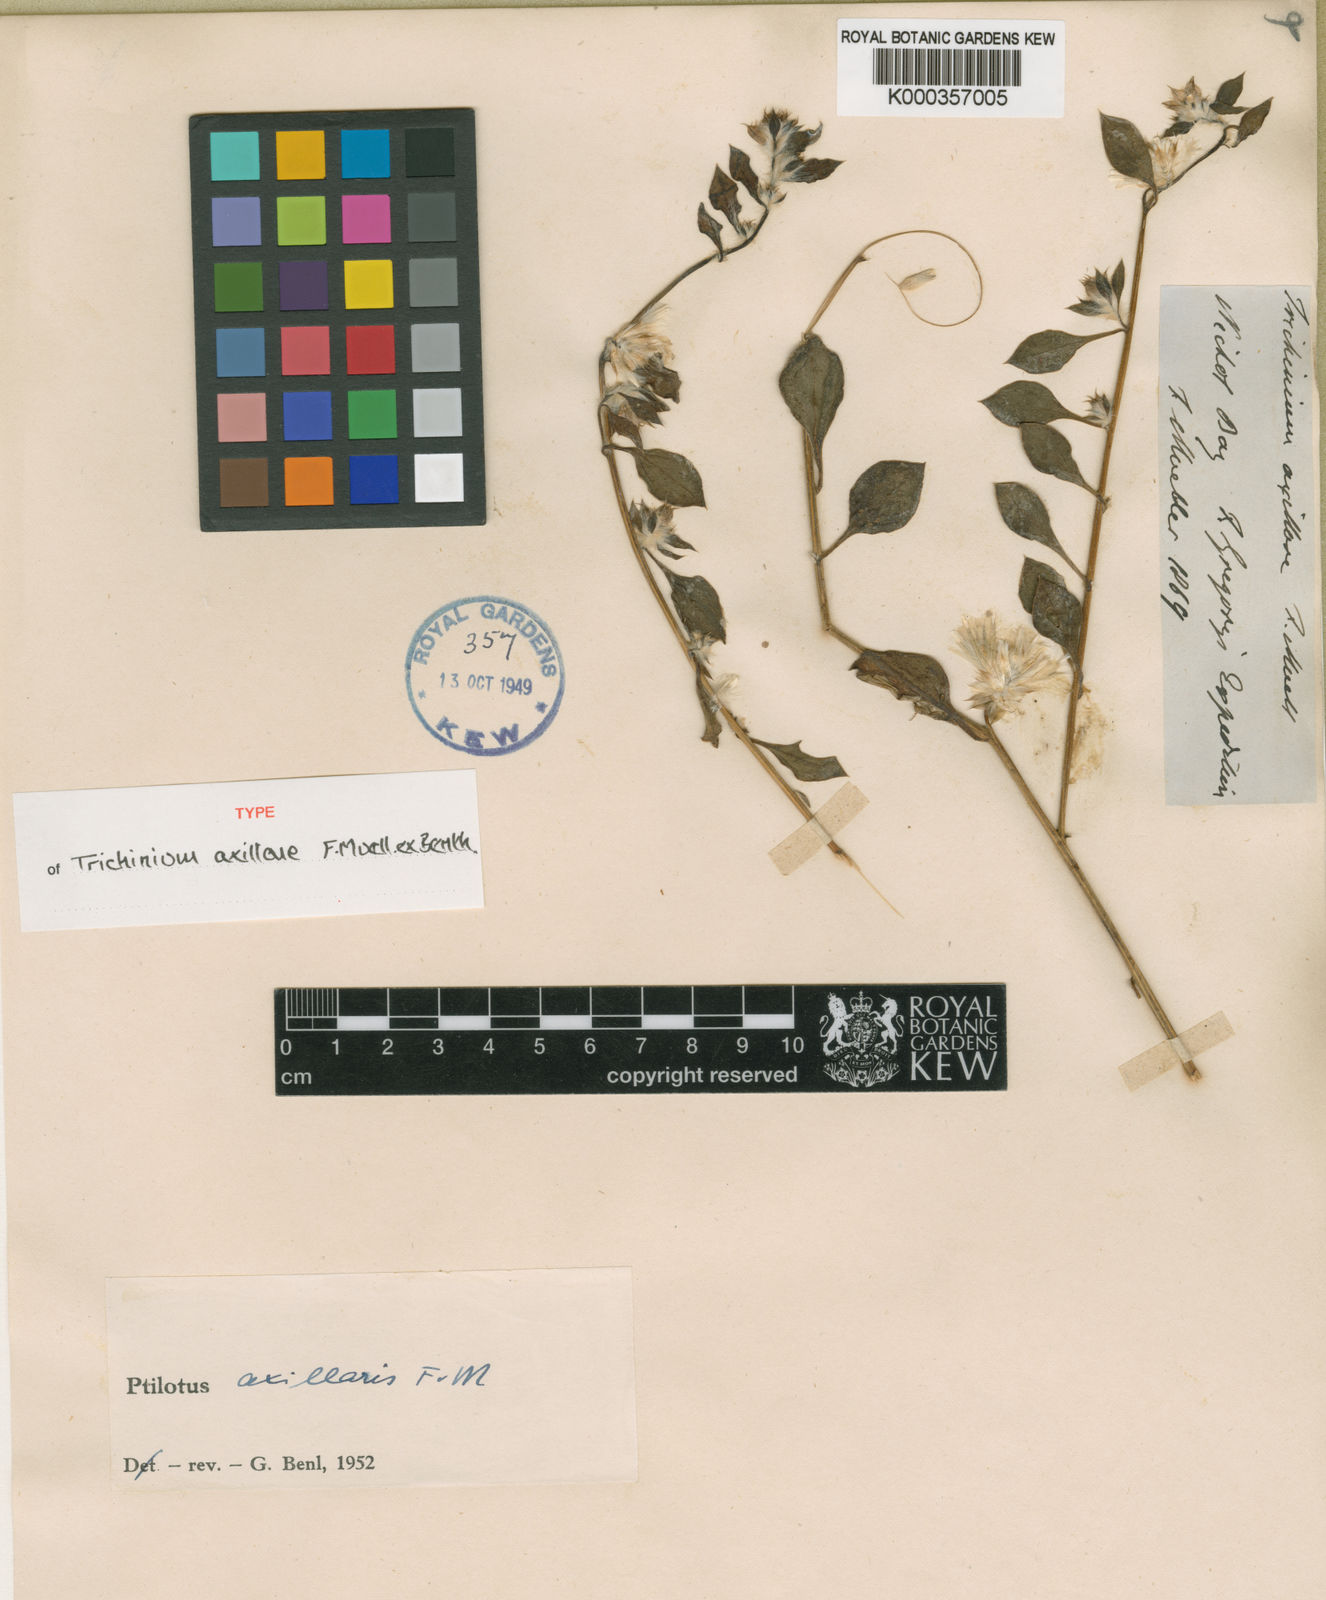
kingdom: Plantae
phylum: Tracheophyta
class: Magnoliopsida
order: Caryophyllales
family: Amaranthaceae
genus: Ptilotus
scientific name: Ptilotus axillaris
